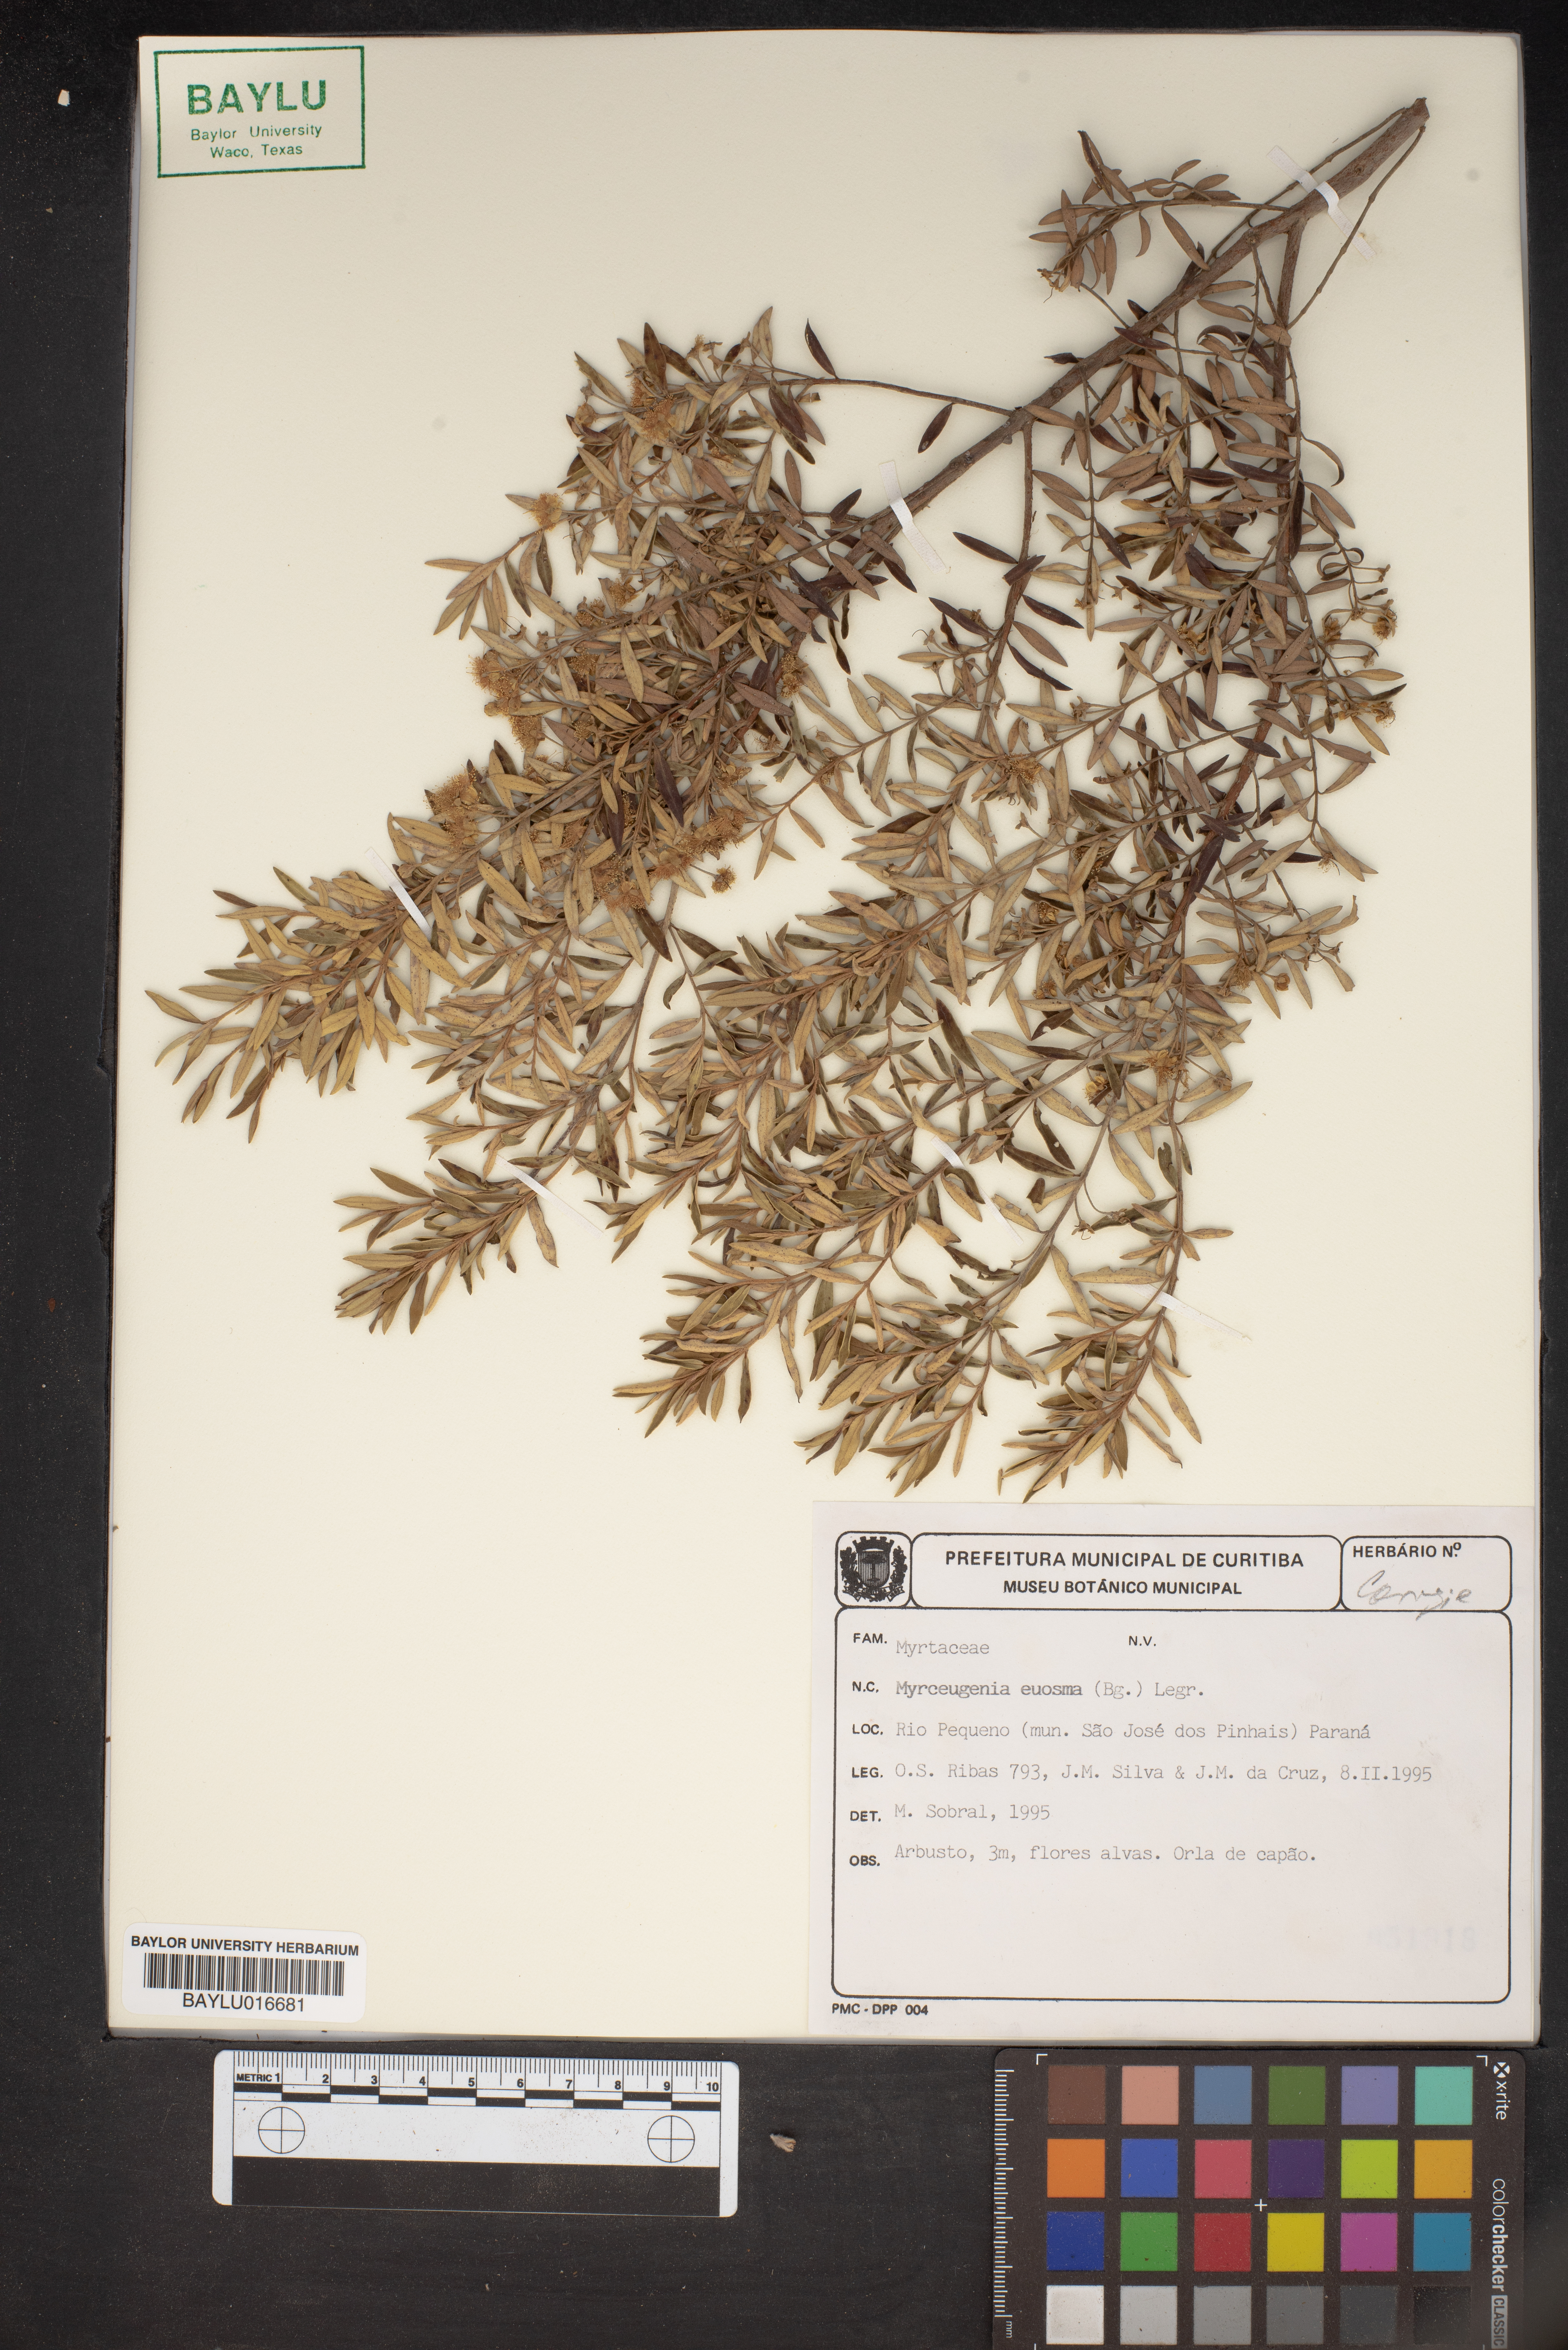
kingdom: Plantae
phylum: Tracheophyta
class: Magnoliopsida
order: Myrtales
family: Myrtaceae
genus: Myrceugenia
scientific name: Myrceugenia euosma
